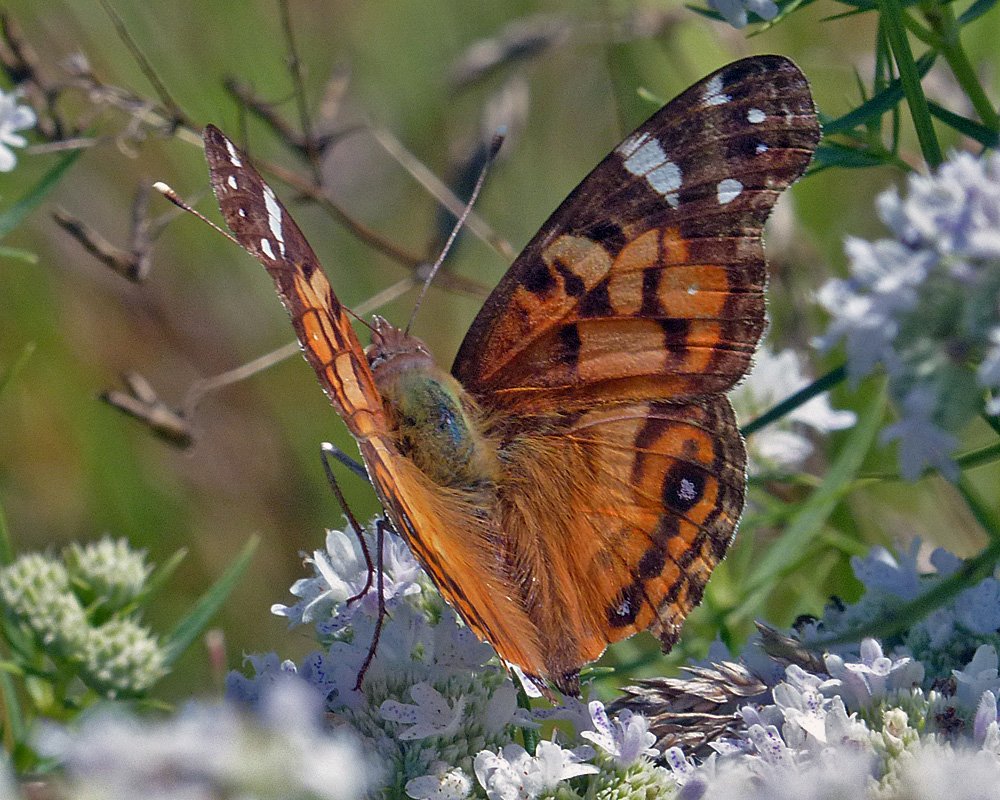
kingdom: Animalia
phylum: Arthropoda
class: Insecta
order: Lepidoptera
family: Nymphalidae
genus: Vanessa
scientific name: Vanessa virginiensis
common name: American Lady
